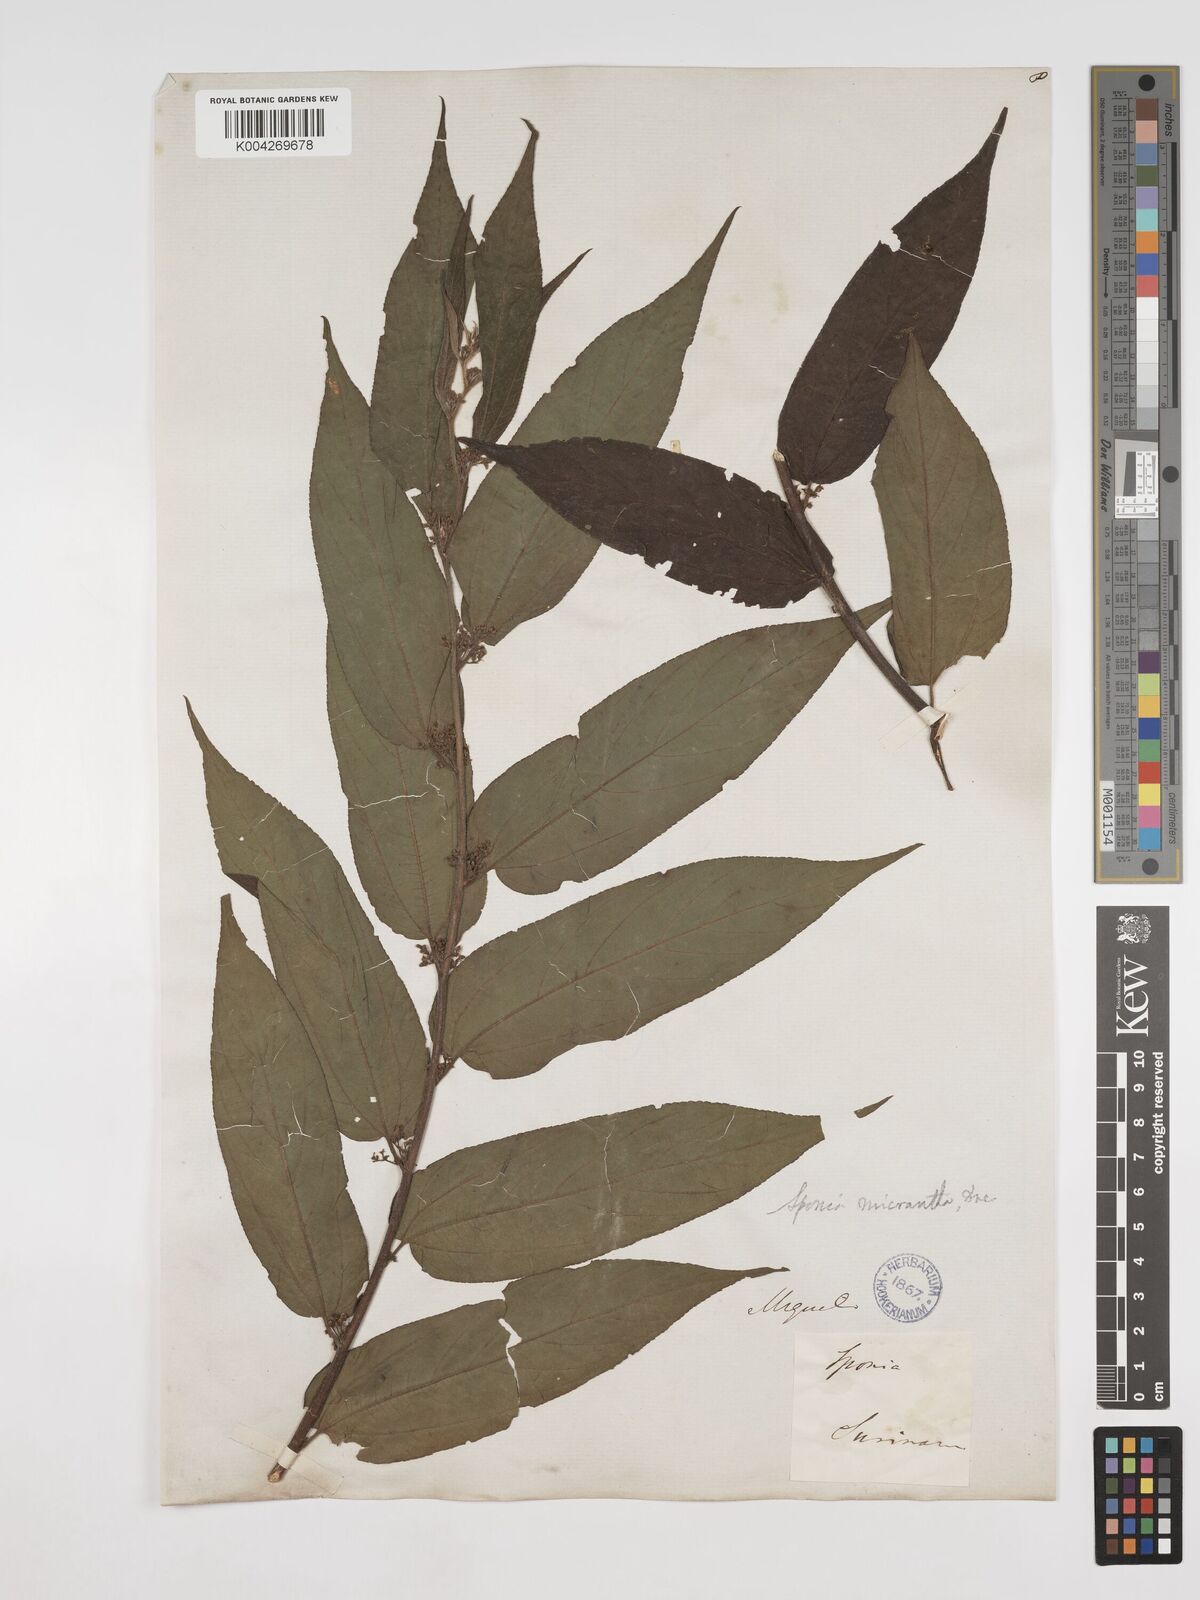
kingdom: Plantae
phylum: Tracheophyta
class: Magnoliopsida
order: Rosales
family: Cannabaceae
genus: Trema
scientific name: Trema micranthum
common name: Jamaican nettletree
